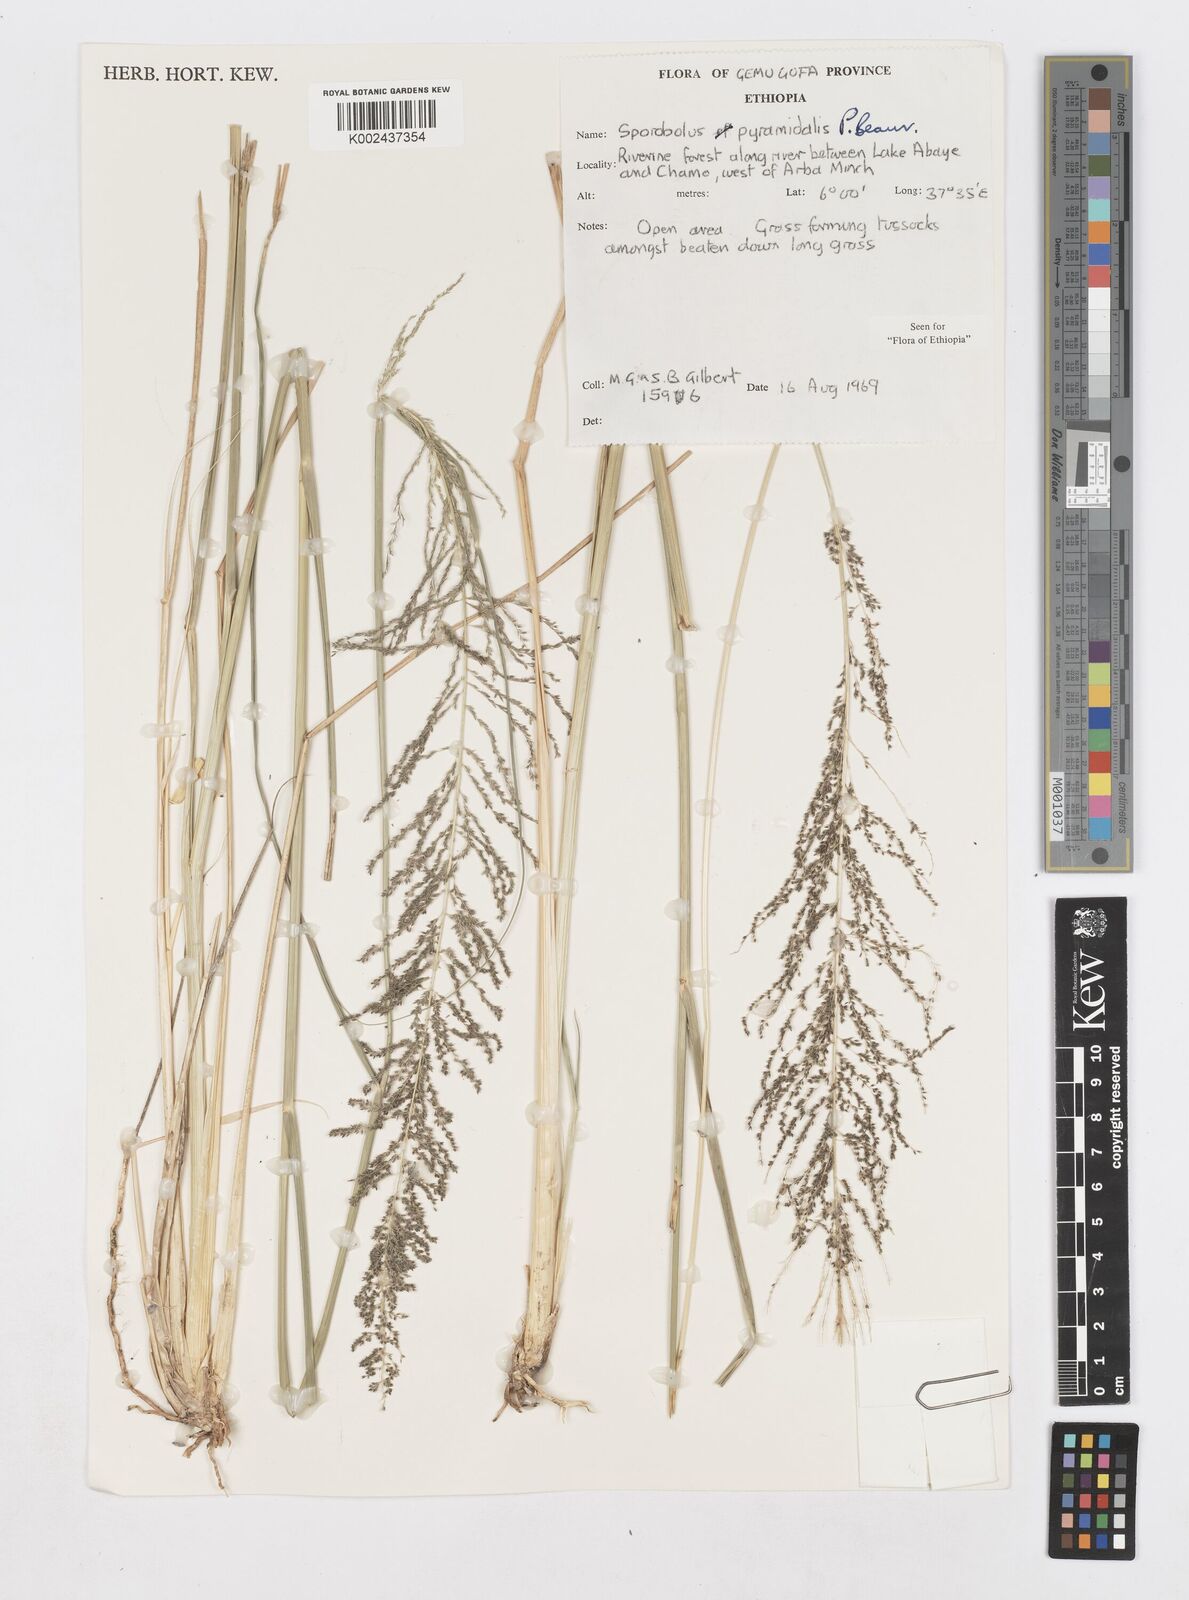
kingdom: Plantae
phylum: Tracheophyta
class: Liliopsida
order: Poales
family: Poaceae
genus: Sporobolus
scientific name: Sporobolus pyramidalis
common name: West indian dropseed
